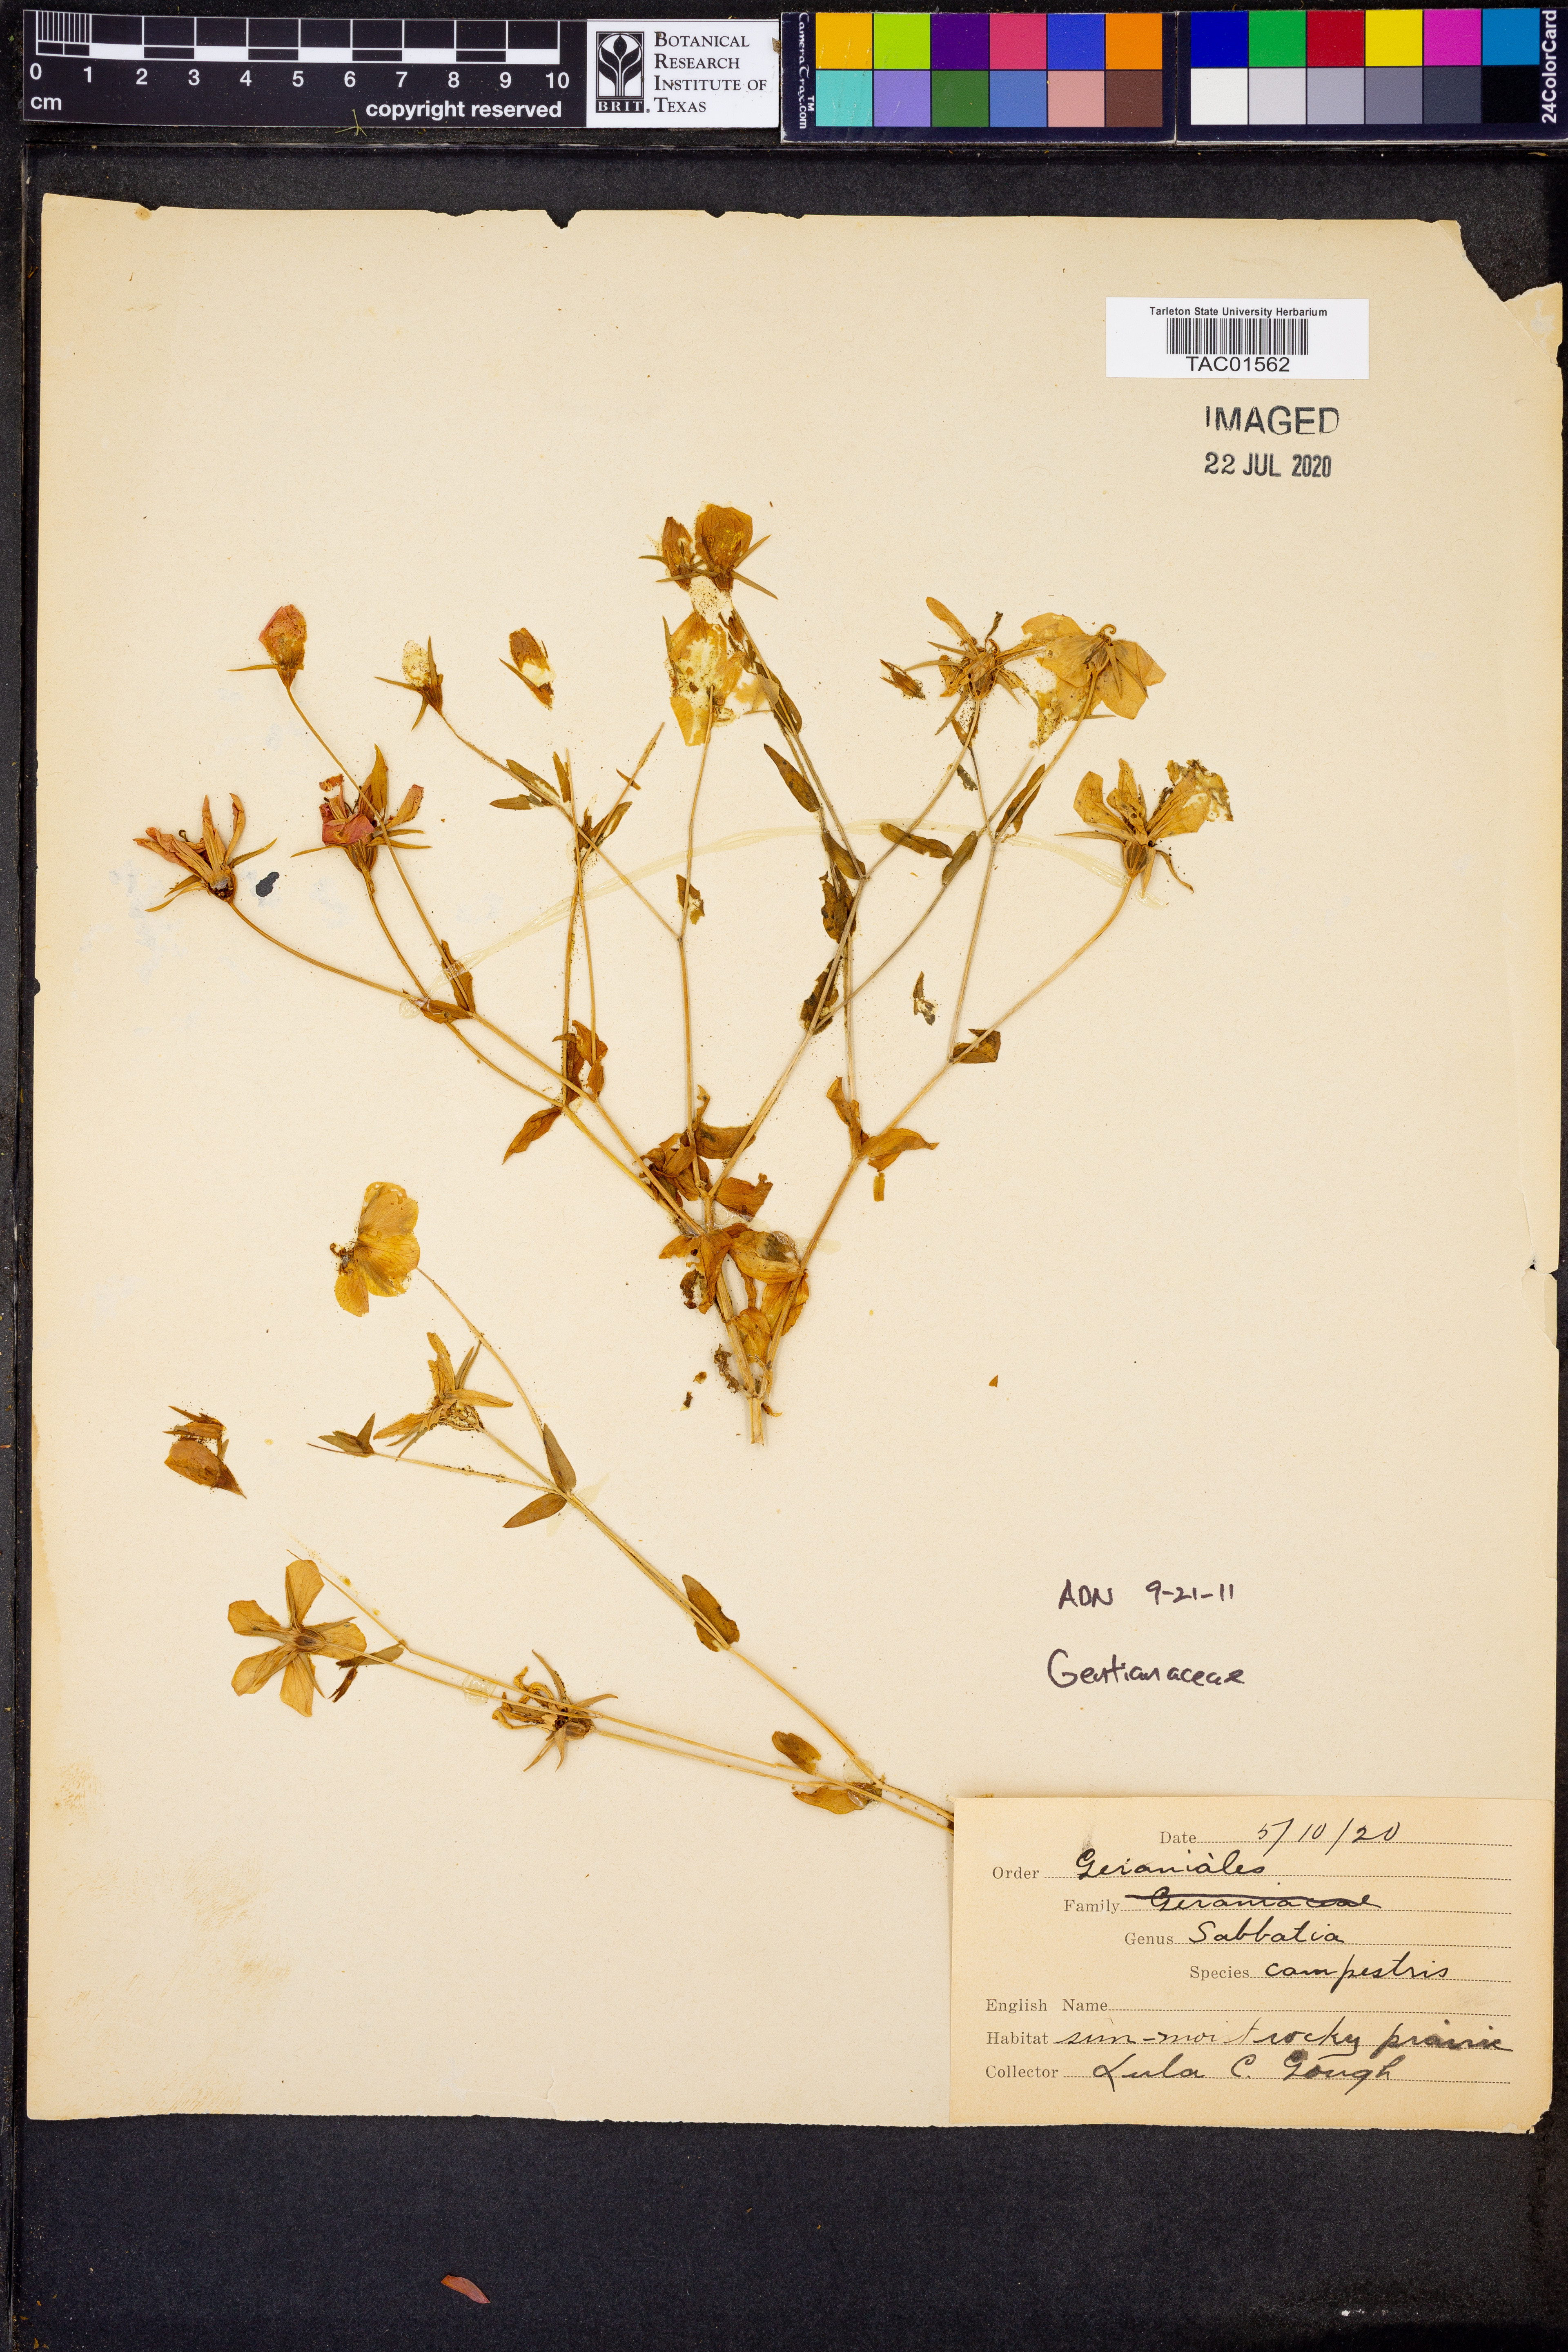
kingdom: Plantae
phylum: Tracheophyta
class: Magnoliopsida
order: Gentianales
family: Gentianaceae
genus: Sabatia
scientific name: Sabatia campestris
